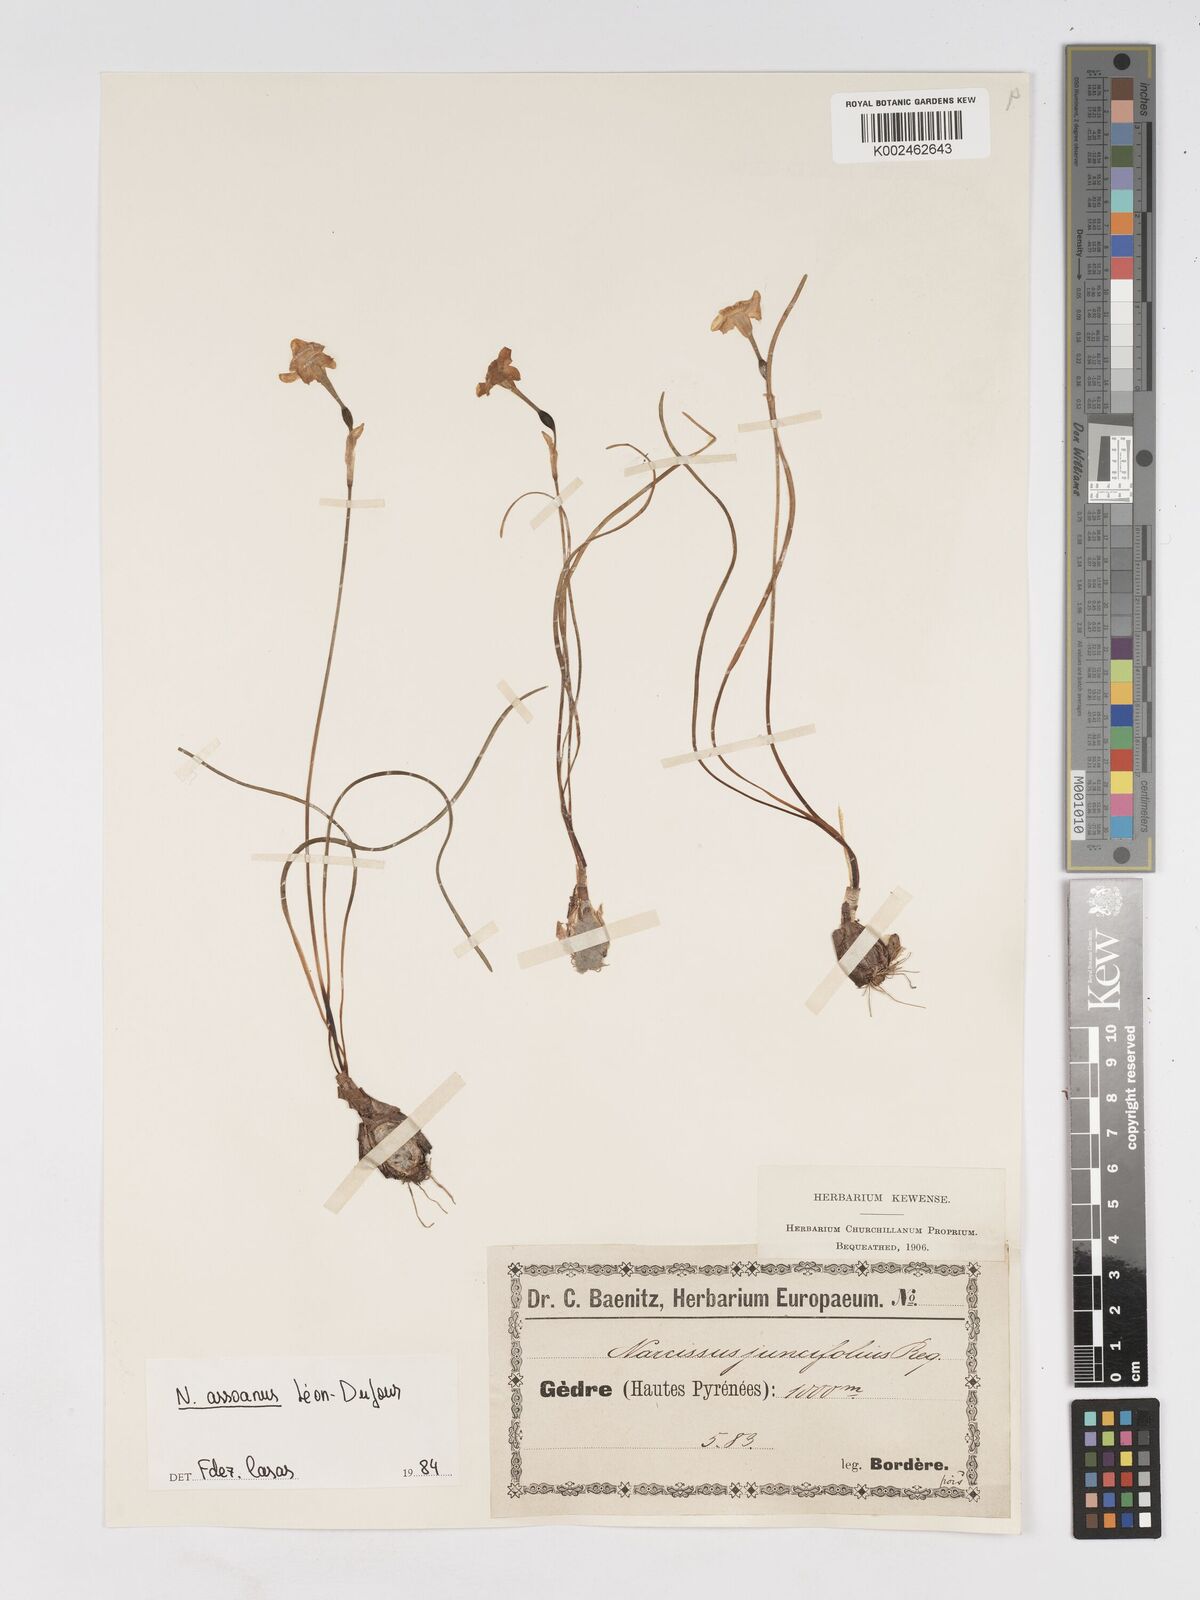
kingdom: Plantae
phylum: Tracheophyta
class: Liliopsida
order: Asparagales
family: Amaryllidaceae
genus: Narcissus
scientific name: Narcissus assoanus
